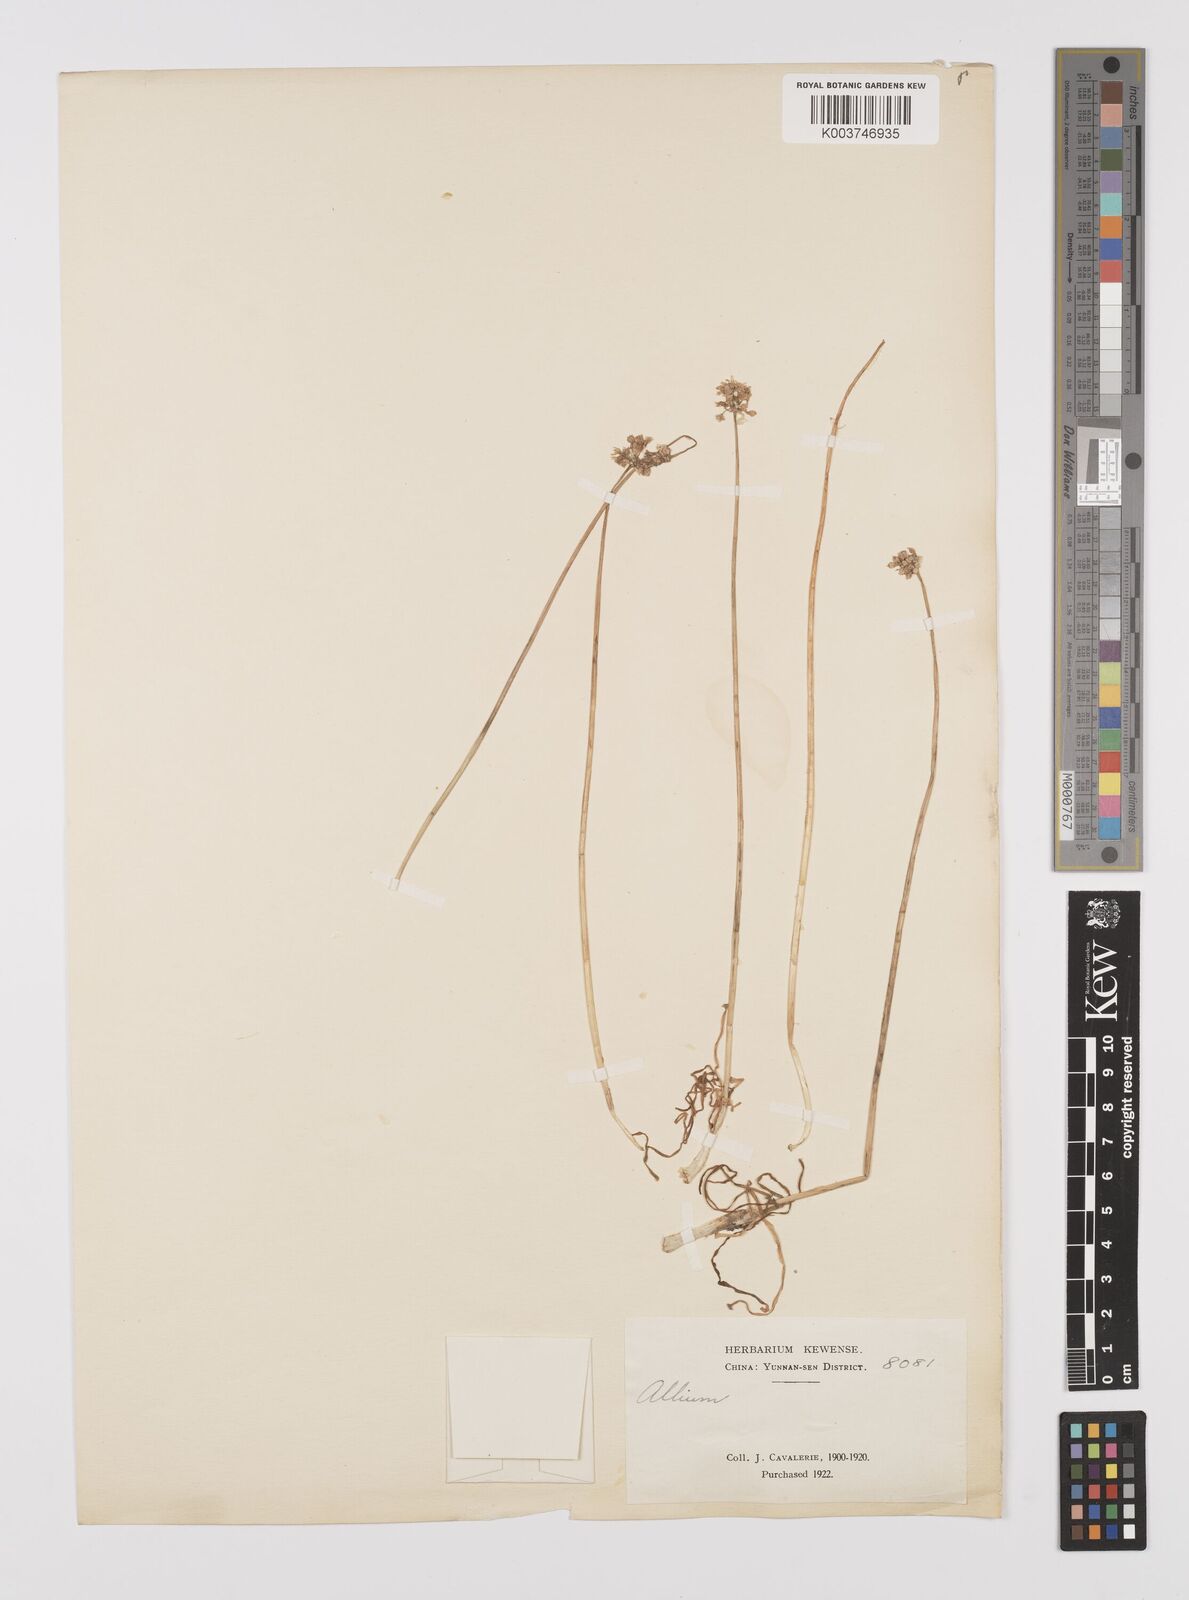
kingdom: Plantae
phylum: Tracheophyta
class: Liliopsida
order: Asparagales
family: Amaryllidaceae
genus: Allium
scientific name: Allium
